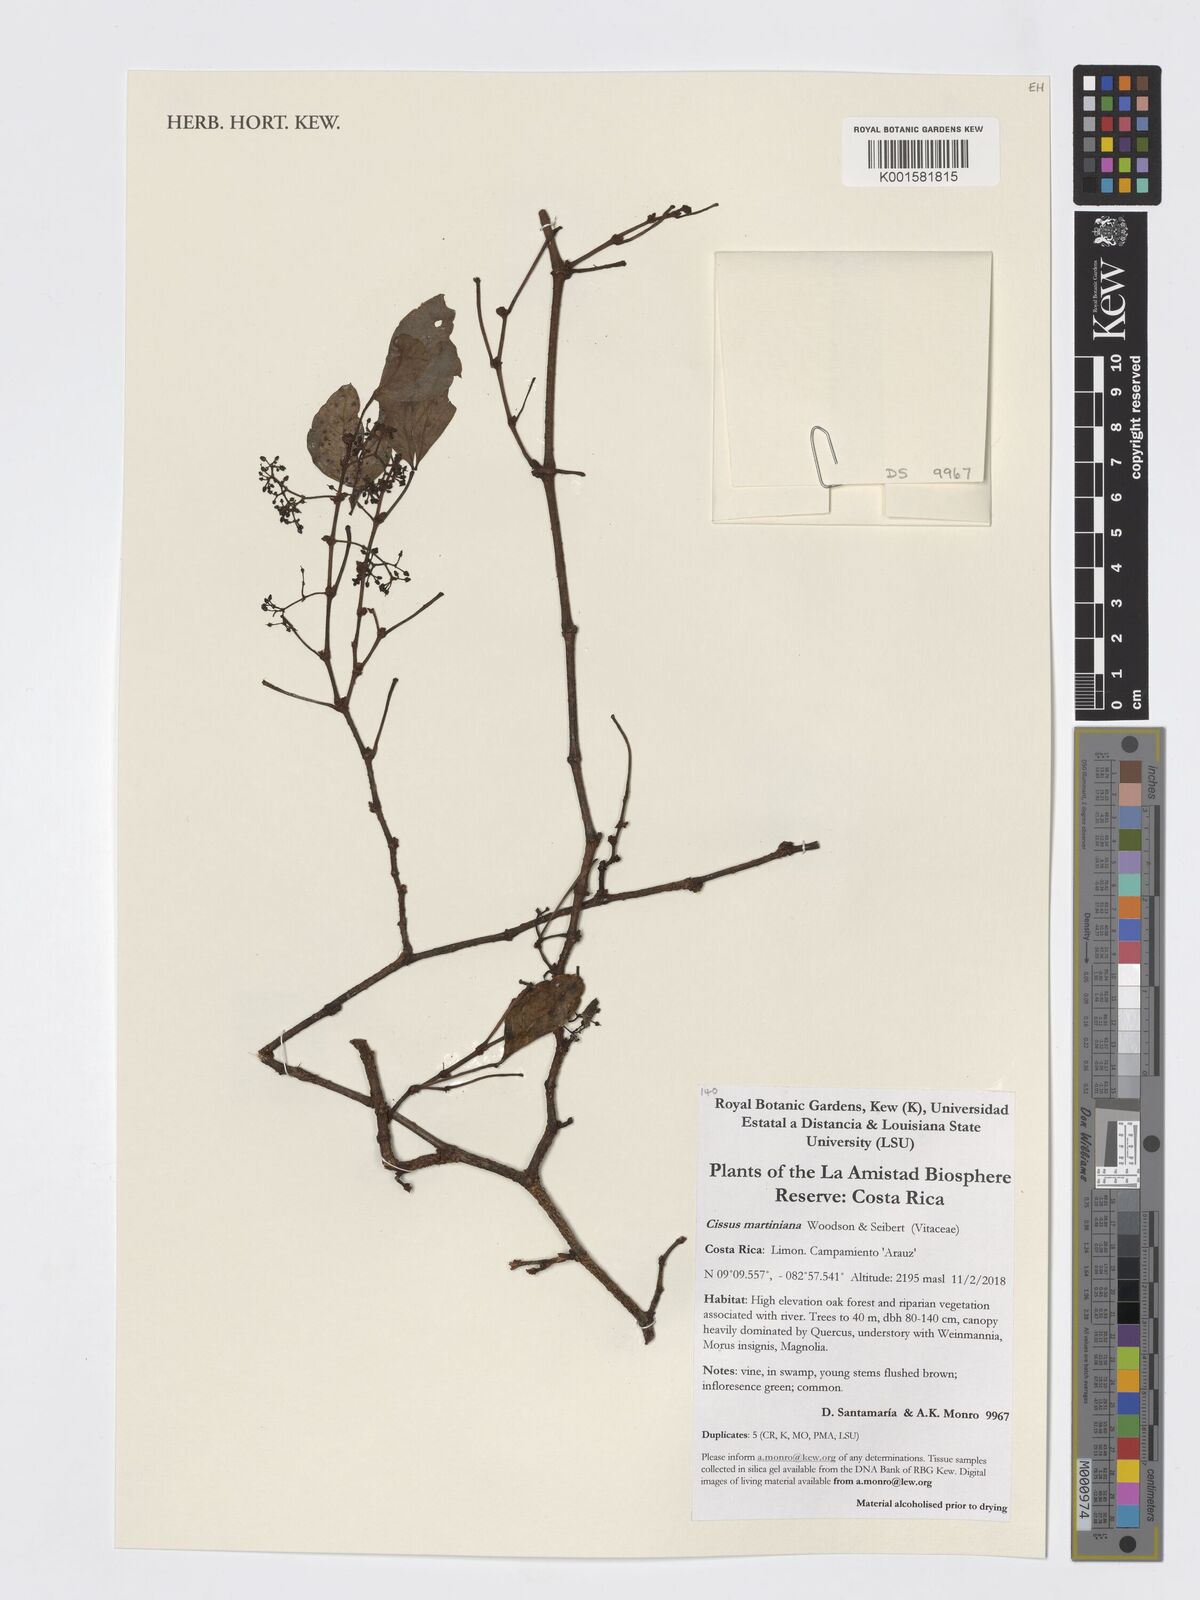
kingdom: Plantae
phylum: Tracheophyta
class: Magnoliopsida
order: Vitales
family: Vitaceae
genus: Cissus
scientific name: Cissus trianae
